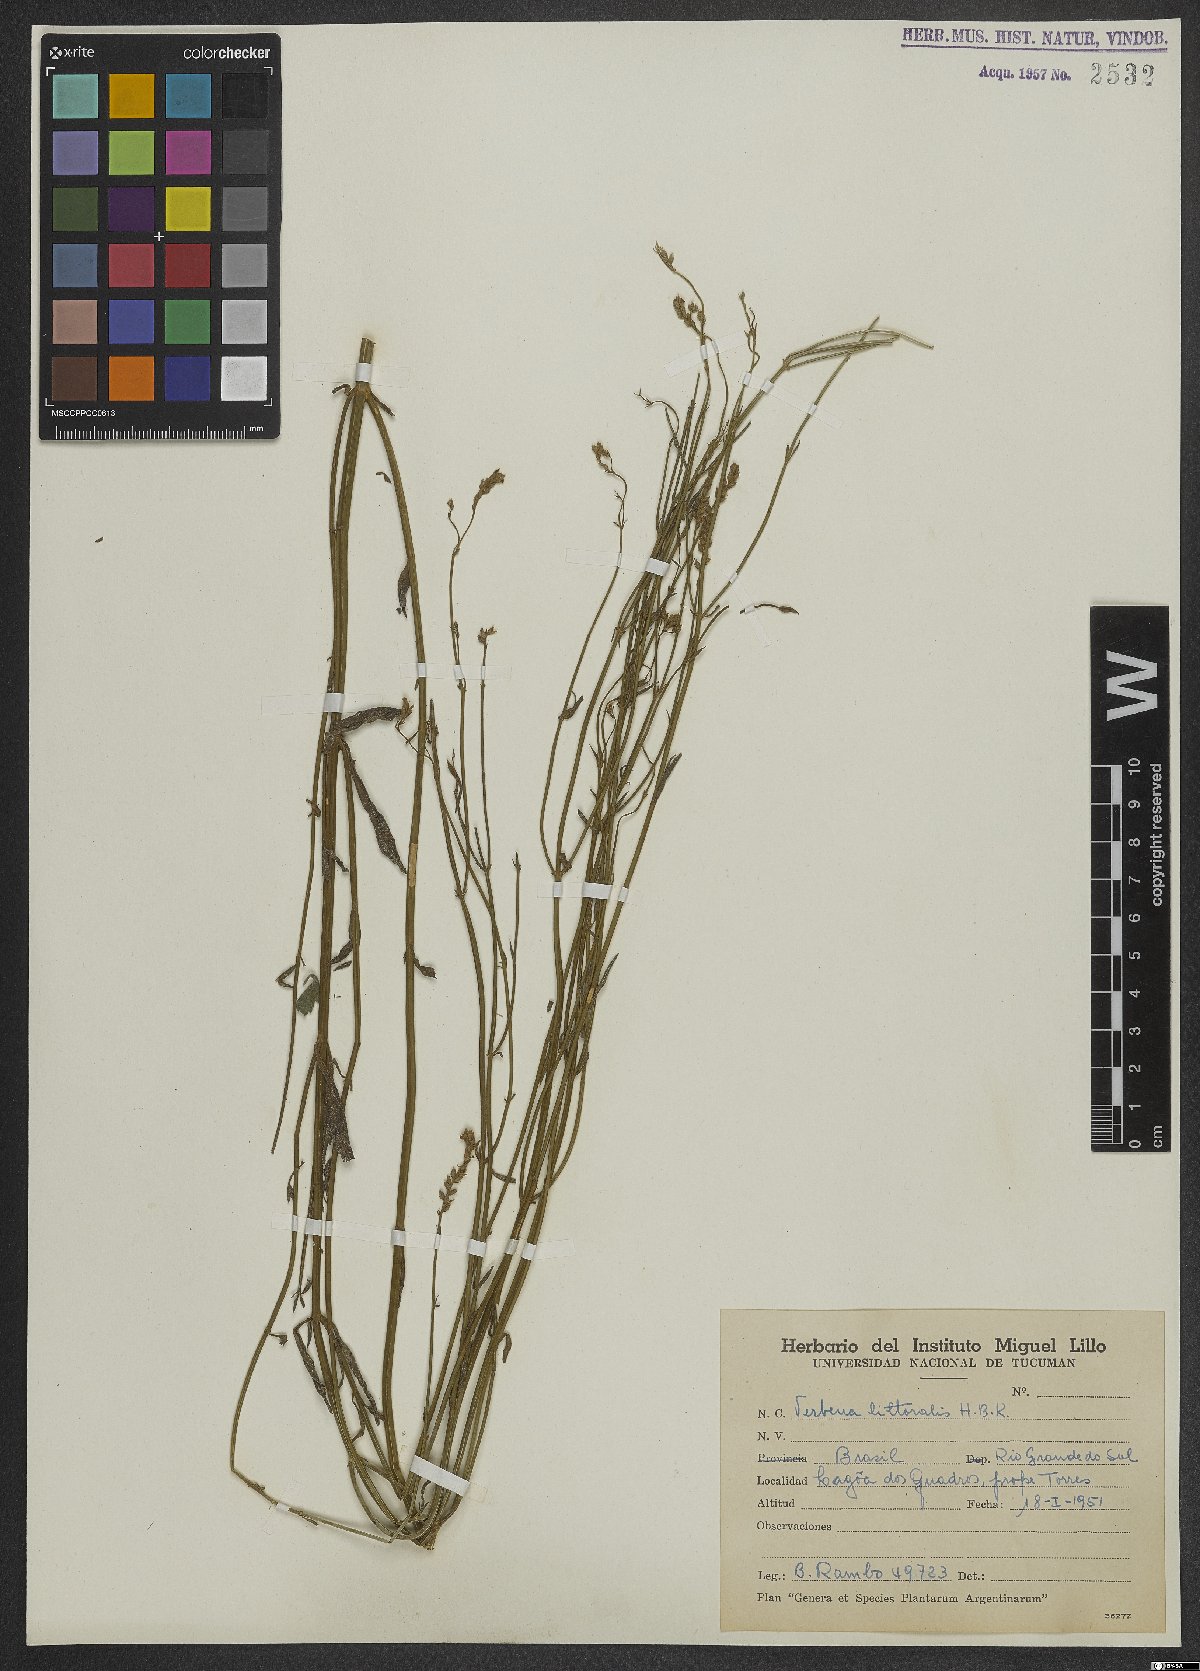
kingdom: Plantae
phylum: Tracheophyta
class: Magnoliopsida
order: Lamiales
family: Verbenaceae
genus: Verbena
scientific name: Verbena litoralis
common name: Seashore vervain
